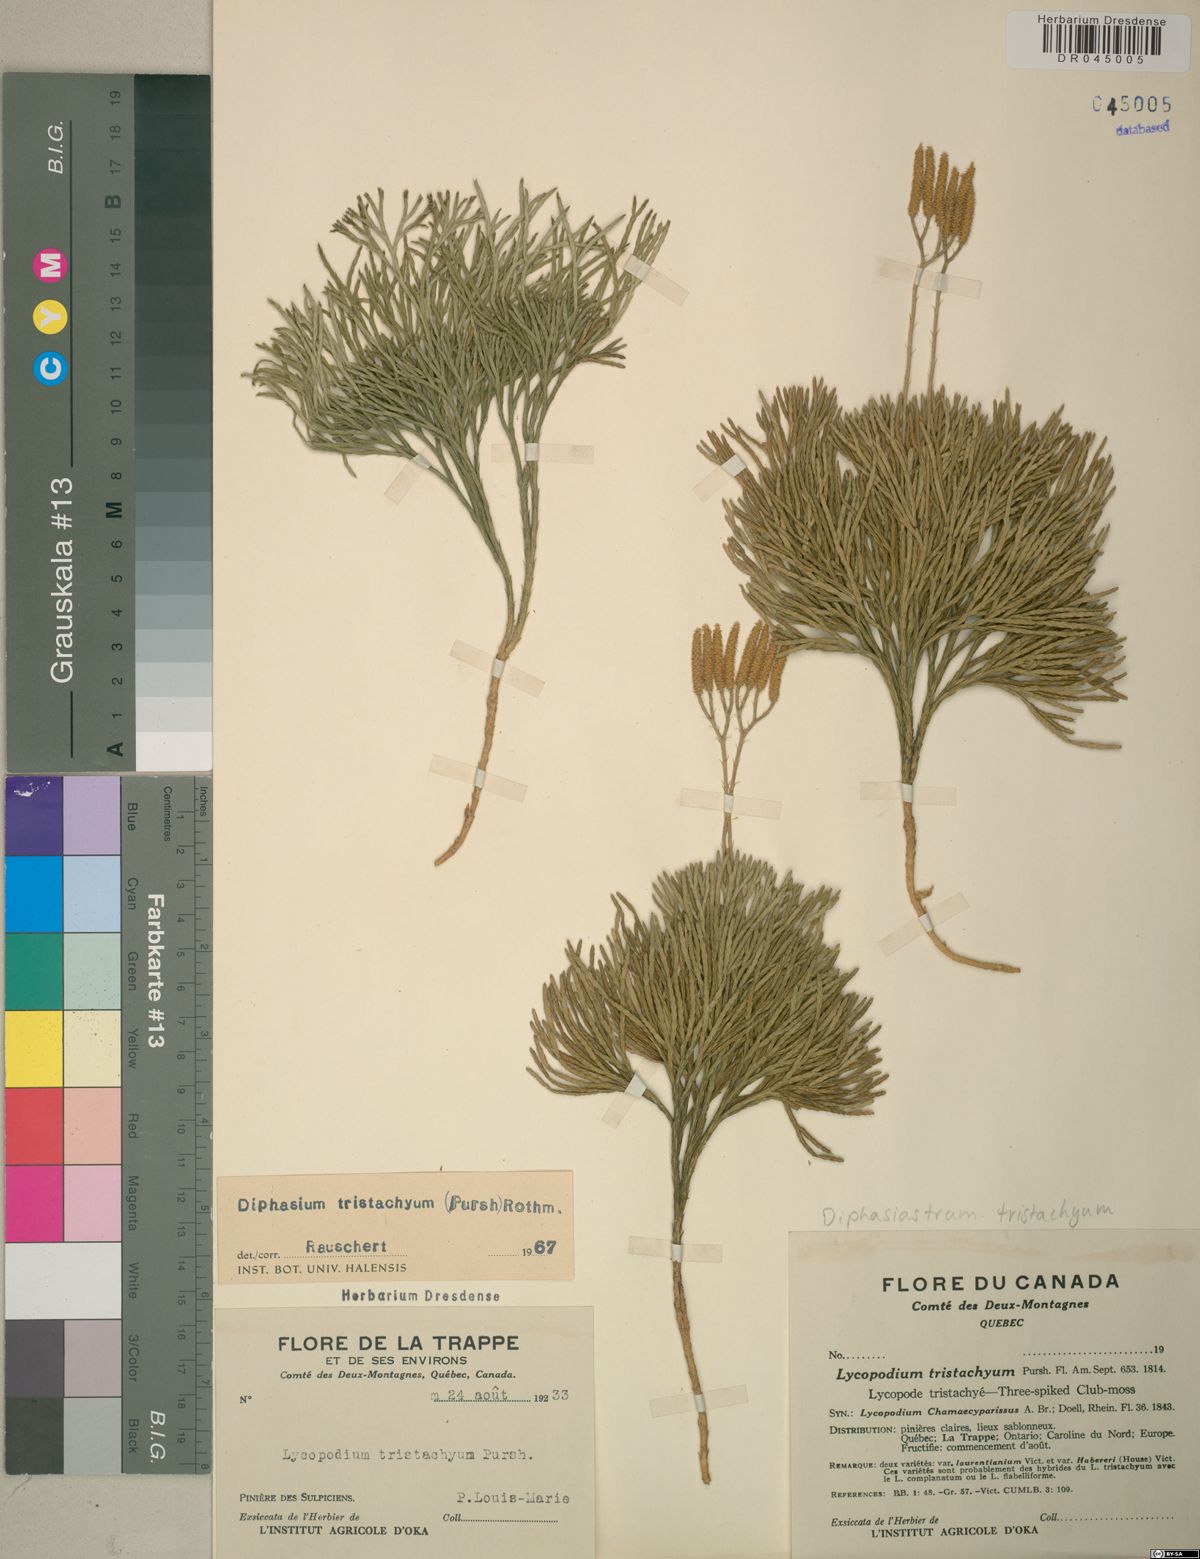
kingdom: Plantae
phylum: Tracheophyta
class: Lycopodiopsida
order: Lycopodiales
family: Lycopodiaceae
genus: Diphasiastrum
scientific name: Diphasiastrum tristachyum
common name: Blue ground-cedar
